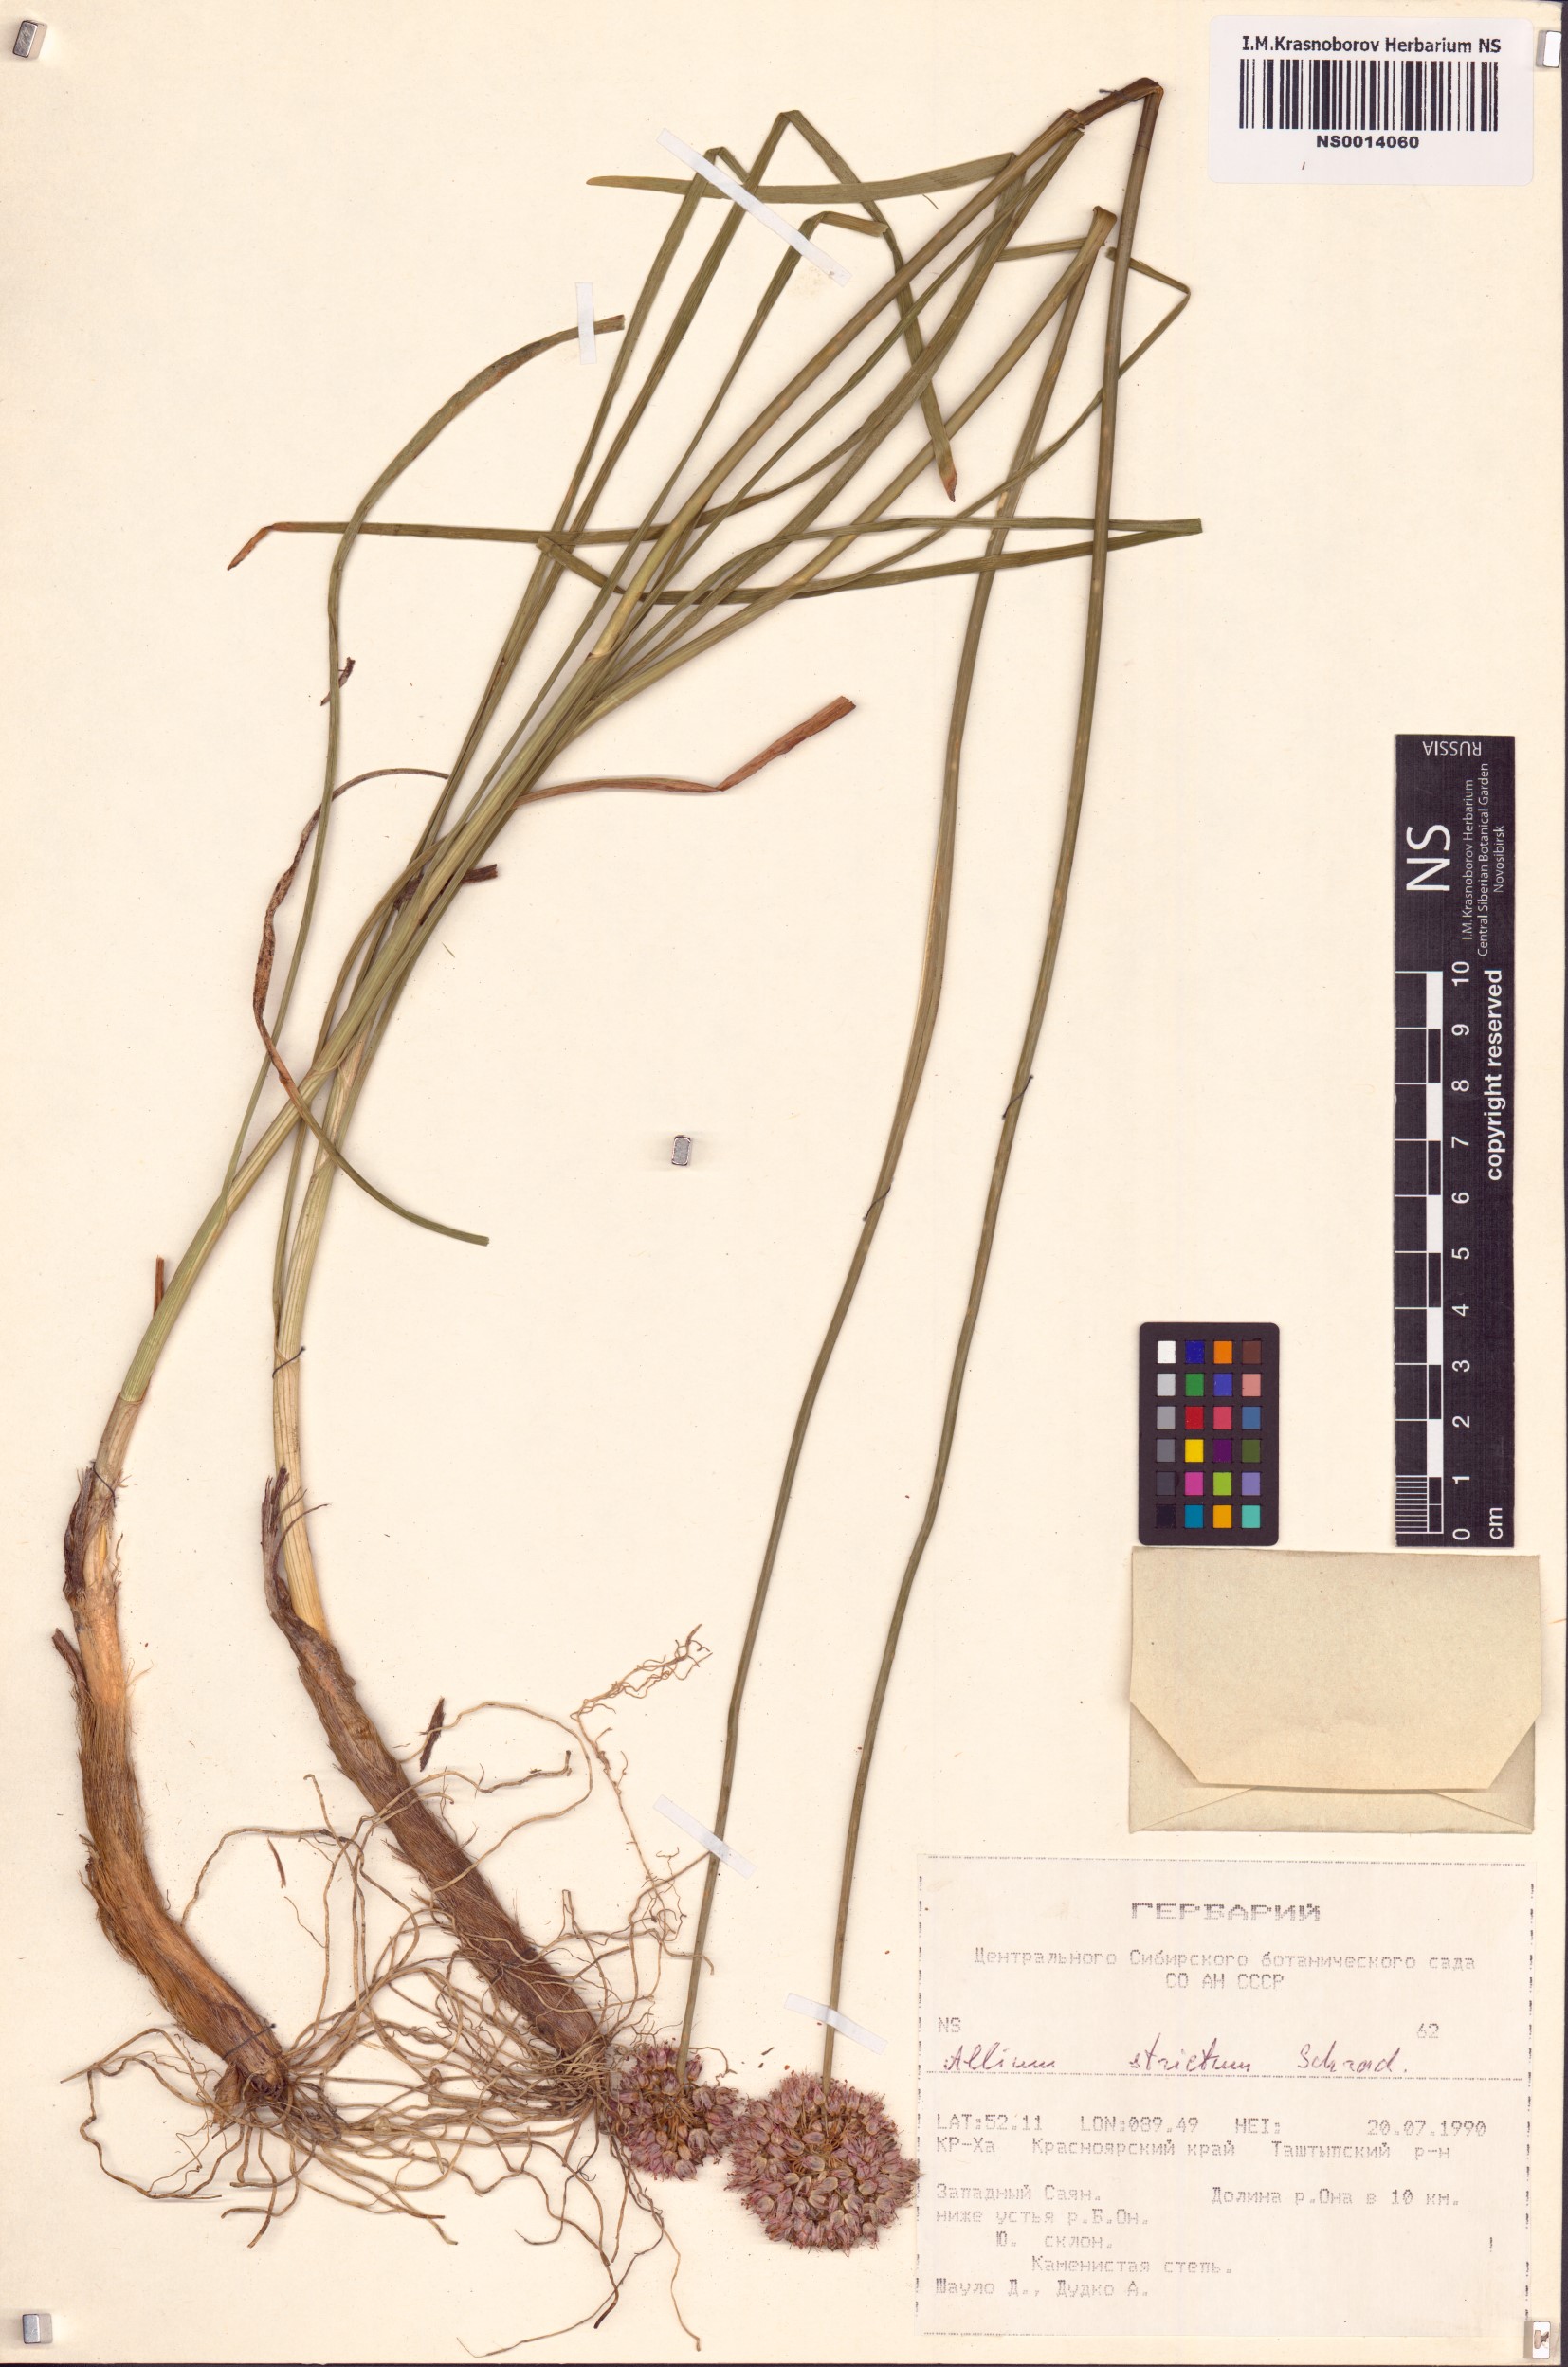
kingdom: Plantae
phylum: Tracheophyta
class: Liliopsida
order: Asparagales
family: Amaryllidaceae
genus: Allium
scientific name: Allium strictum
